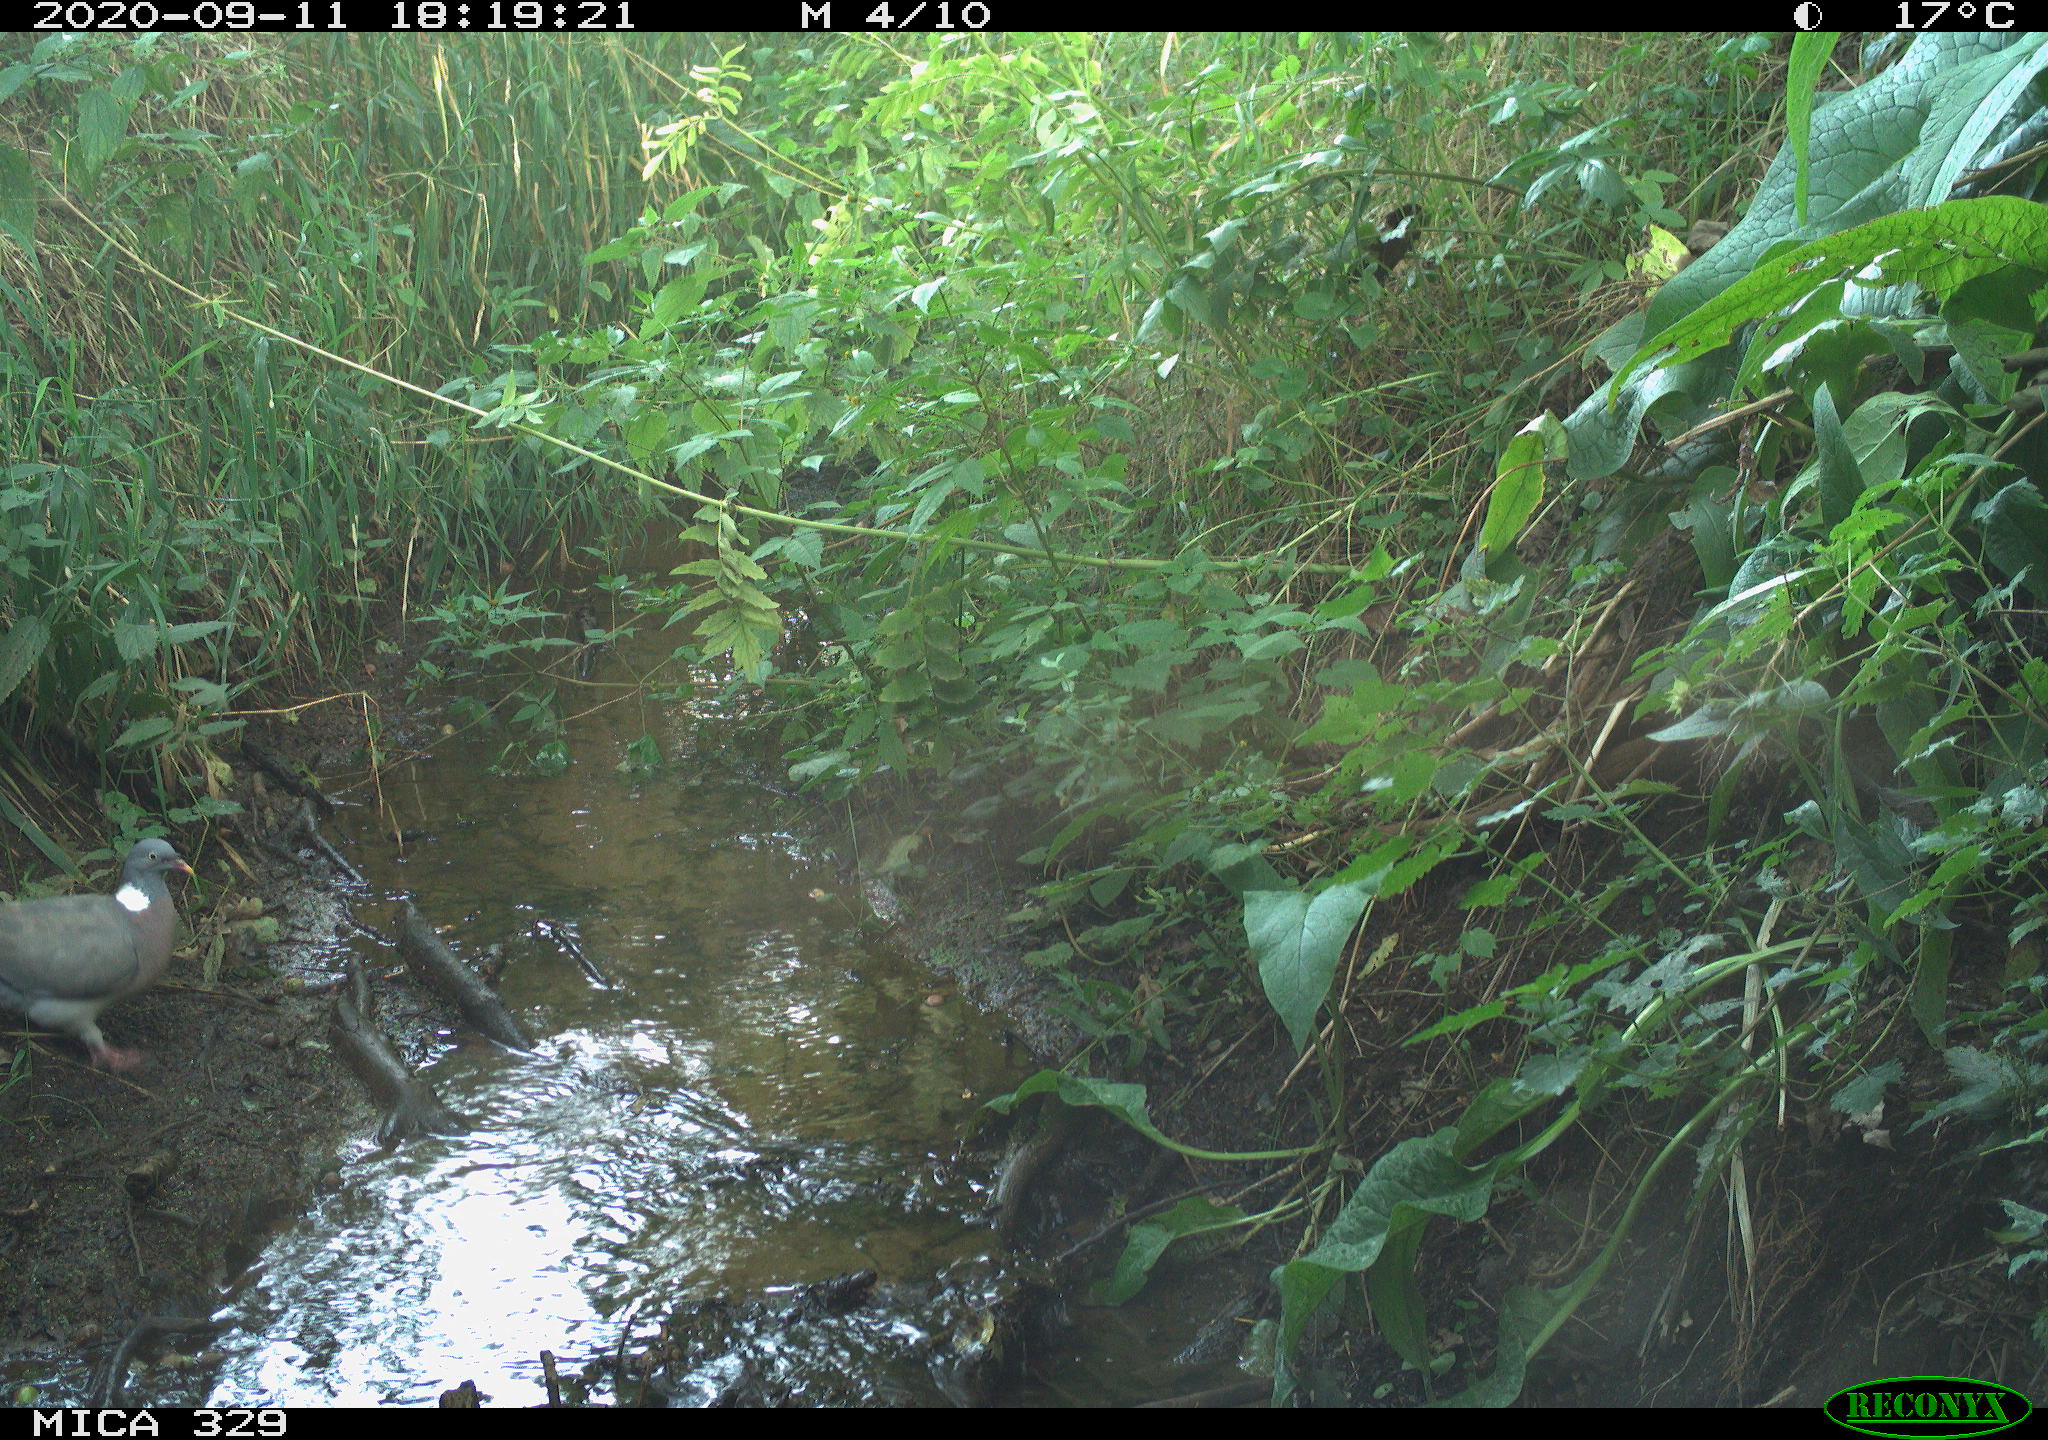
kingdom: Animalia
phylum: Chordata
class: Aves
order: Columbiformes
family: Columbidae
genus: Columba
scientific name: Columba palumbus
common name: Common wood pigeon
